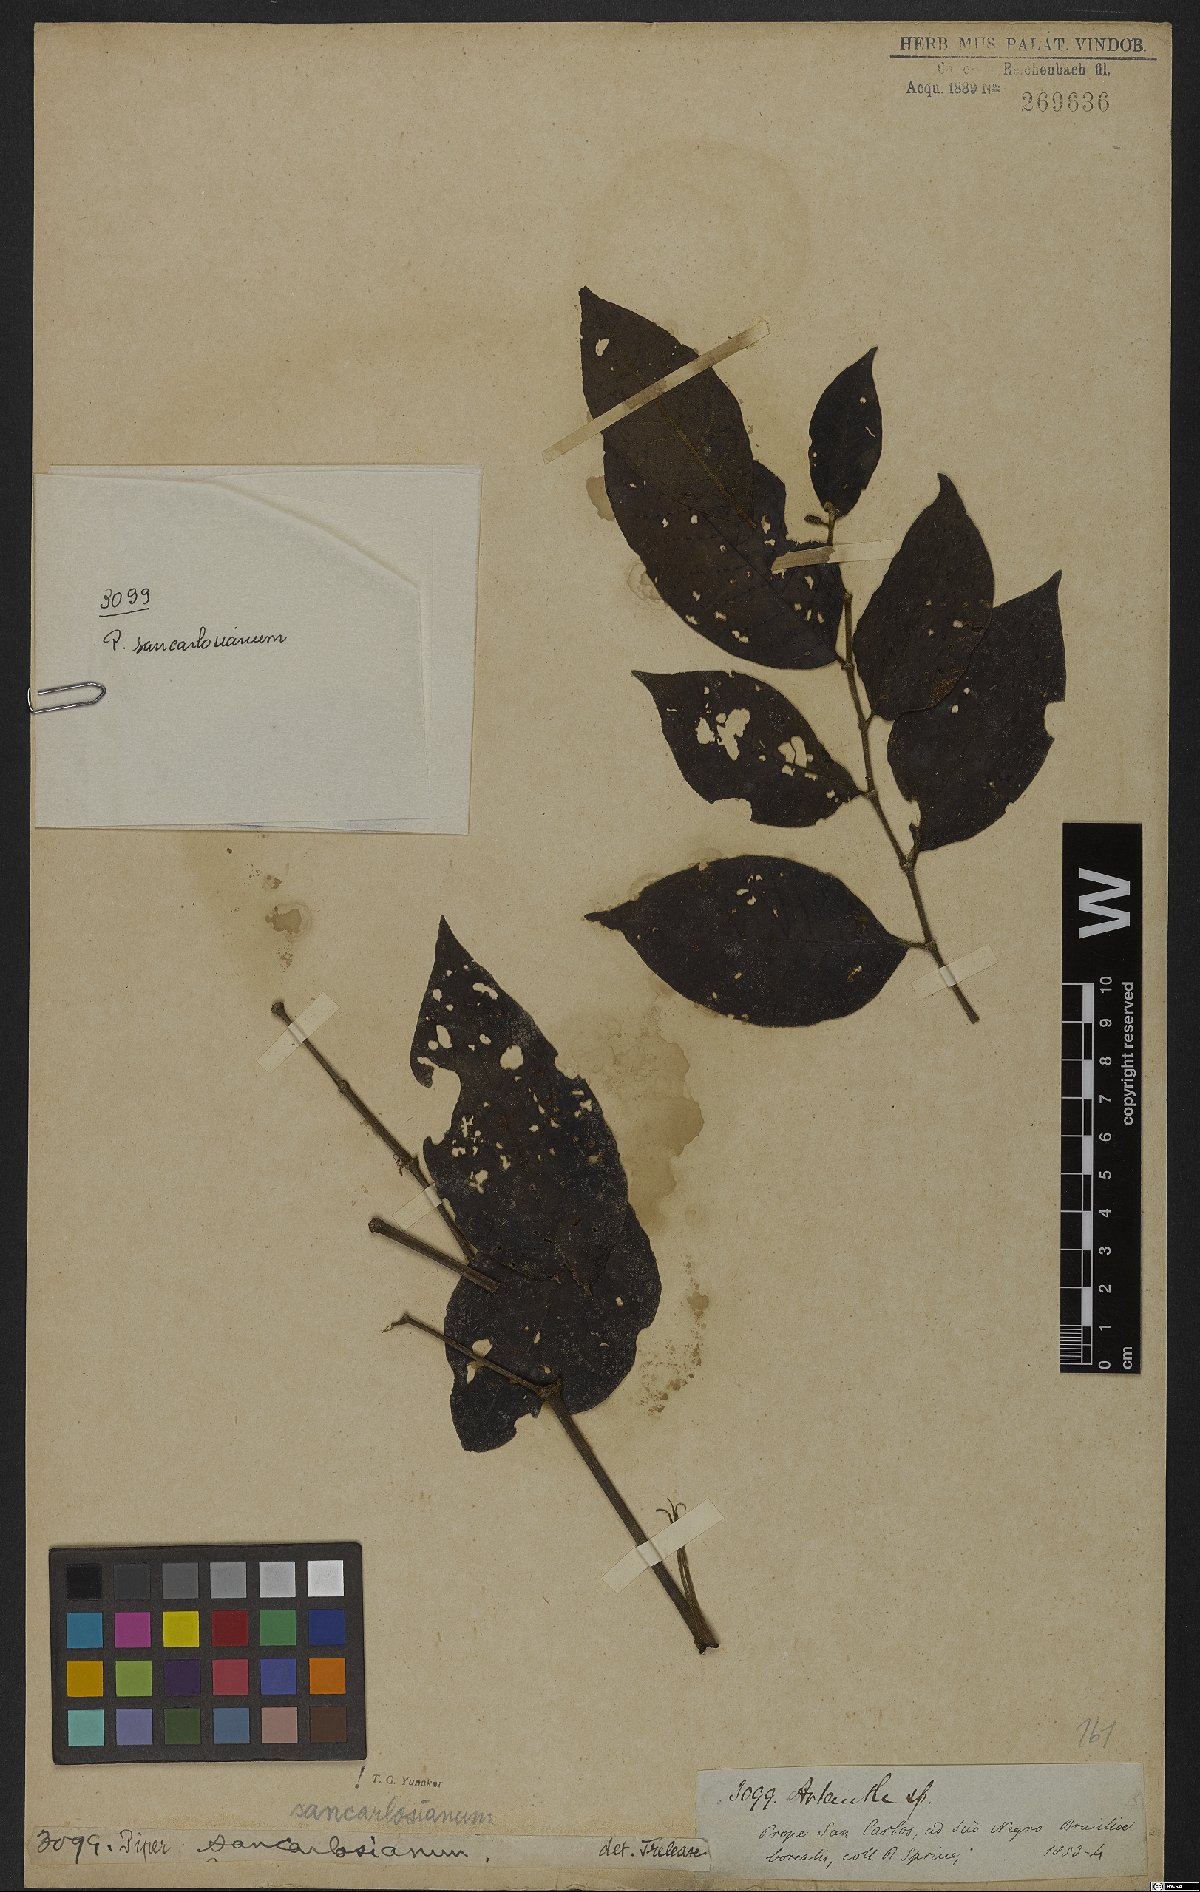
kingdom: Plantae
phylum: Tracheophyta
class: Magnoliopsida
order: Piperales
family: Piperaceae
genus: Piper
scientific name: Piper baccans
